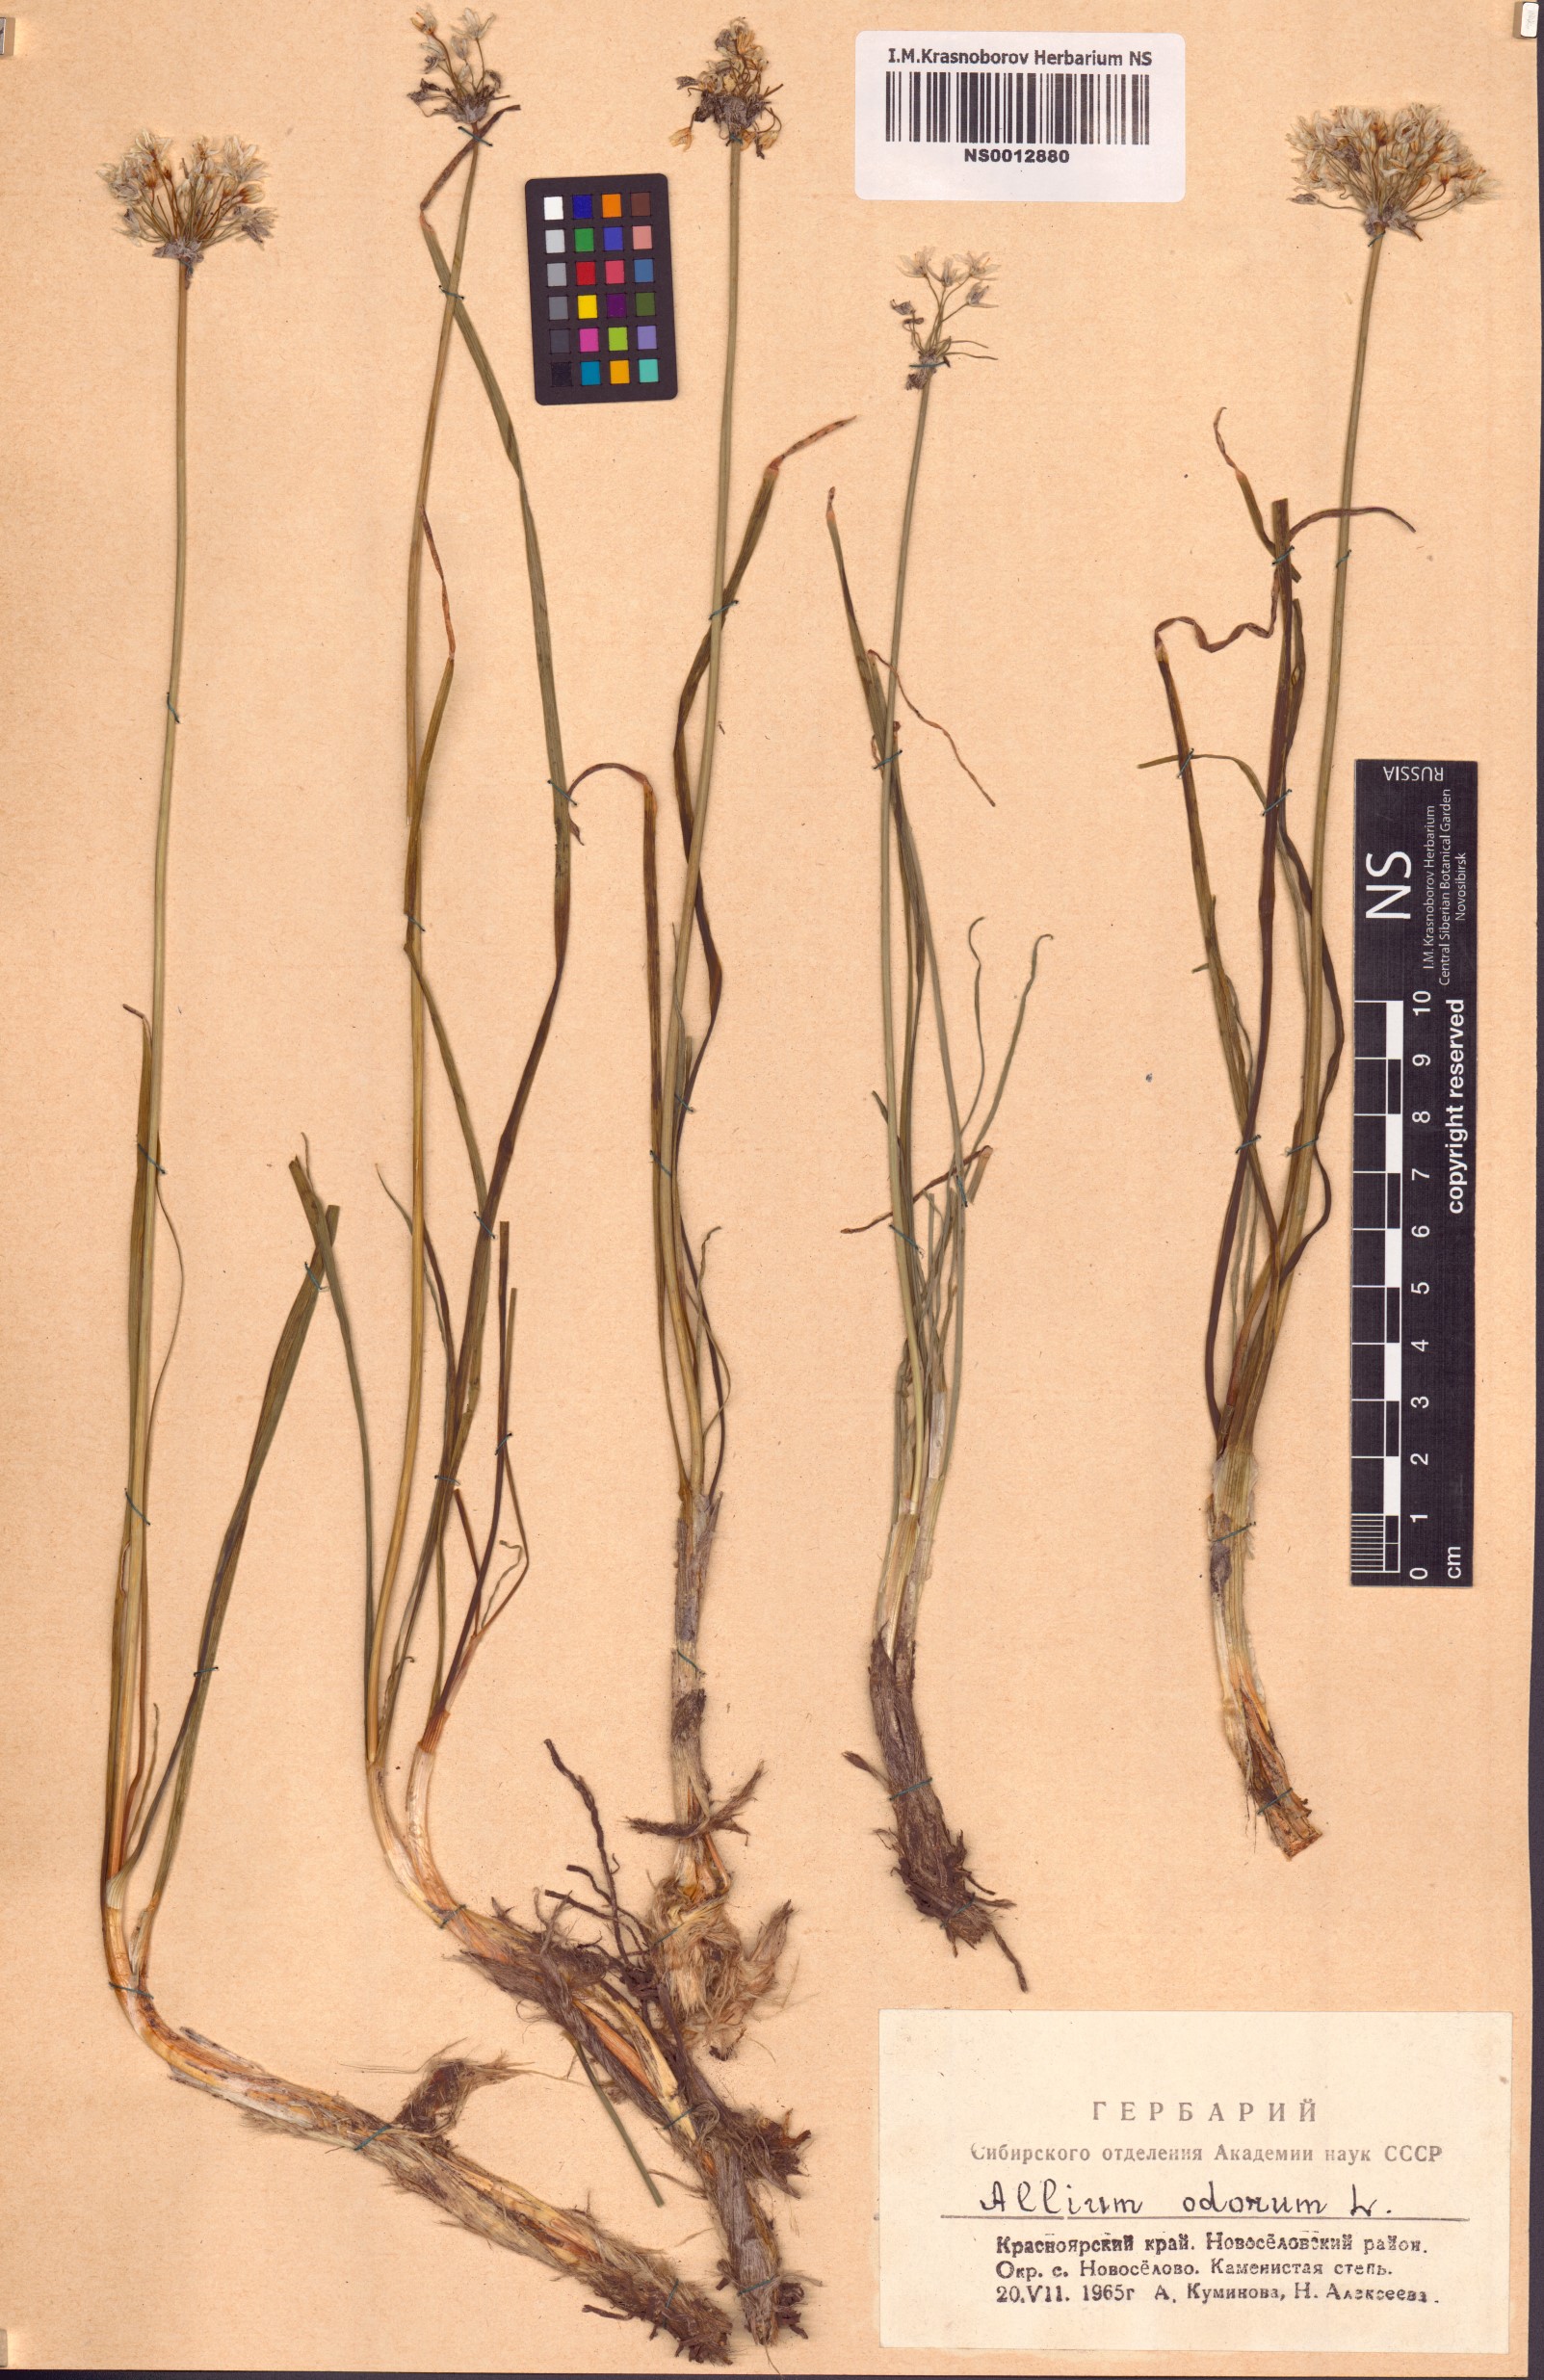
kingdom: Plantae
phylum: Tracheophyta
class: Liliopsida
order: Asparagales
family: Amaryllidaceae
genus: Allium
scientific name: Allium ramosum
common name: Fragrant garlic
